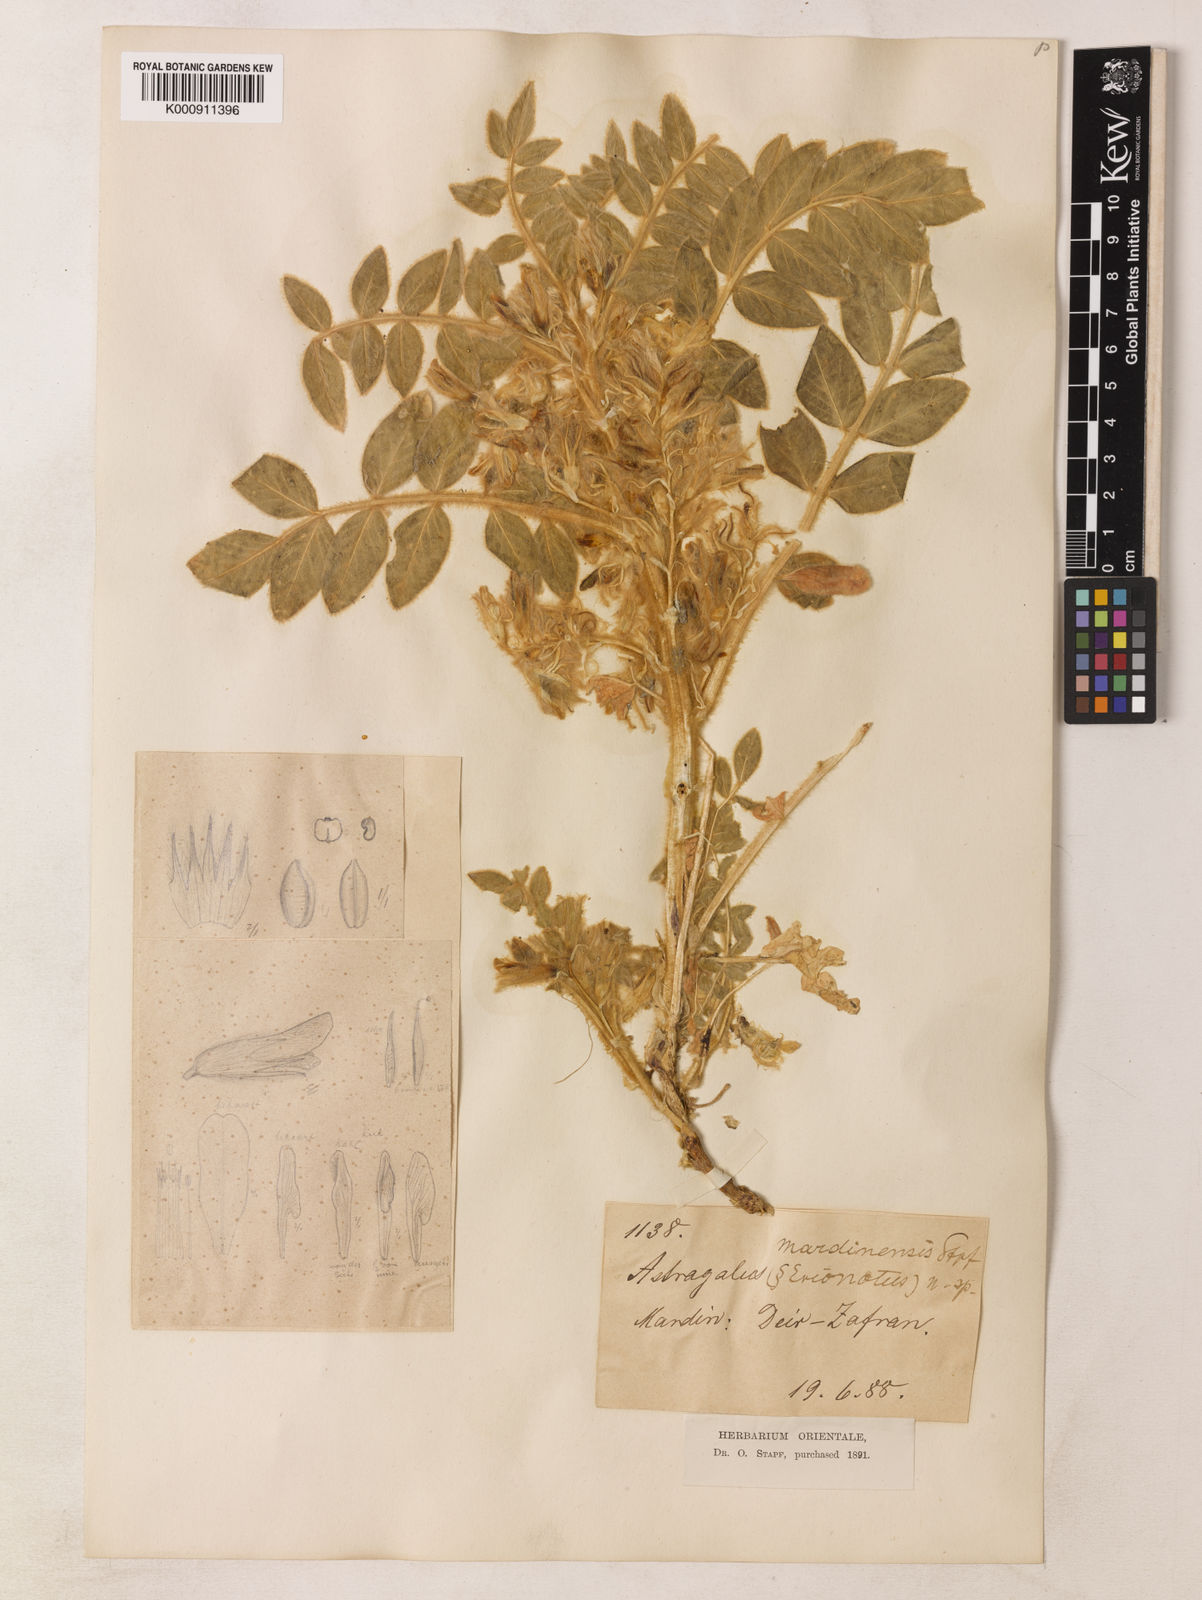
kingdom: Plantae
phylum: Tracheophyta
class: Magnoliopsida
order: Fabales
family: Fabaceae
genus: Astragalus
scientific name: Astragalus
